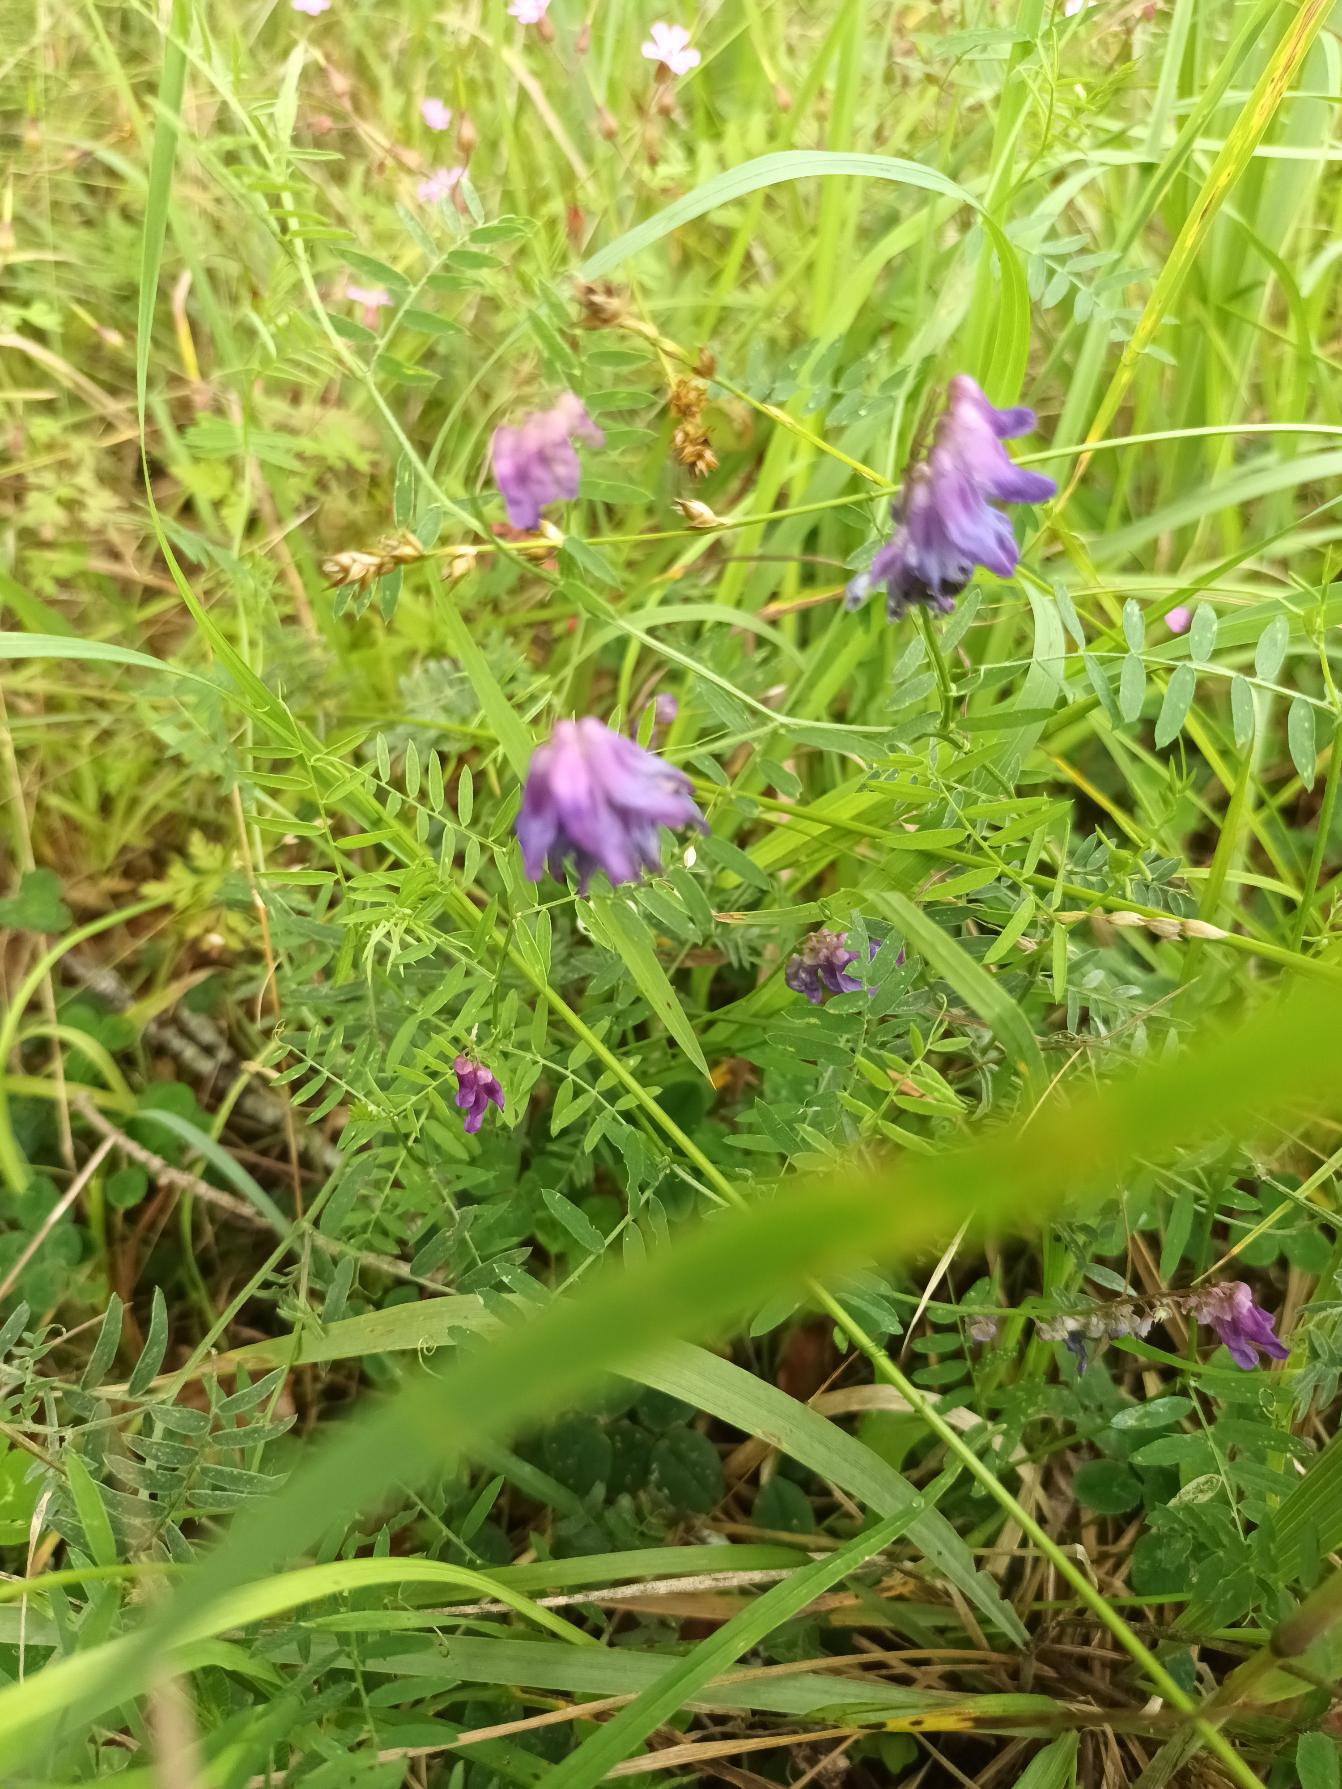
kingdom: Plantae
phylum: Tracheophyta
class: Magnoliopsida
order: Fabales
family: Fabaceae
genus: Vicia
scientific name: Vicia cracca
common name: Muse-vikke
